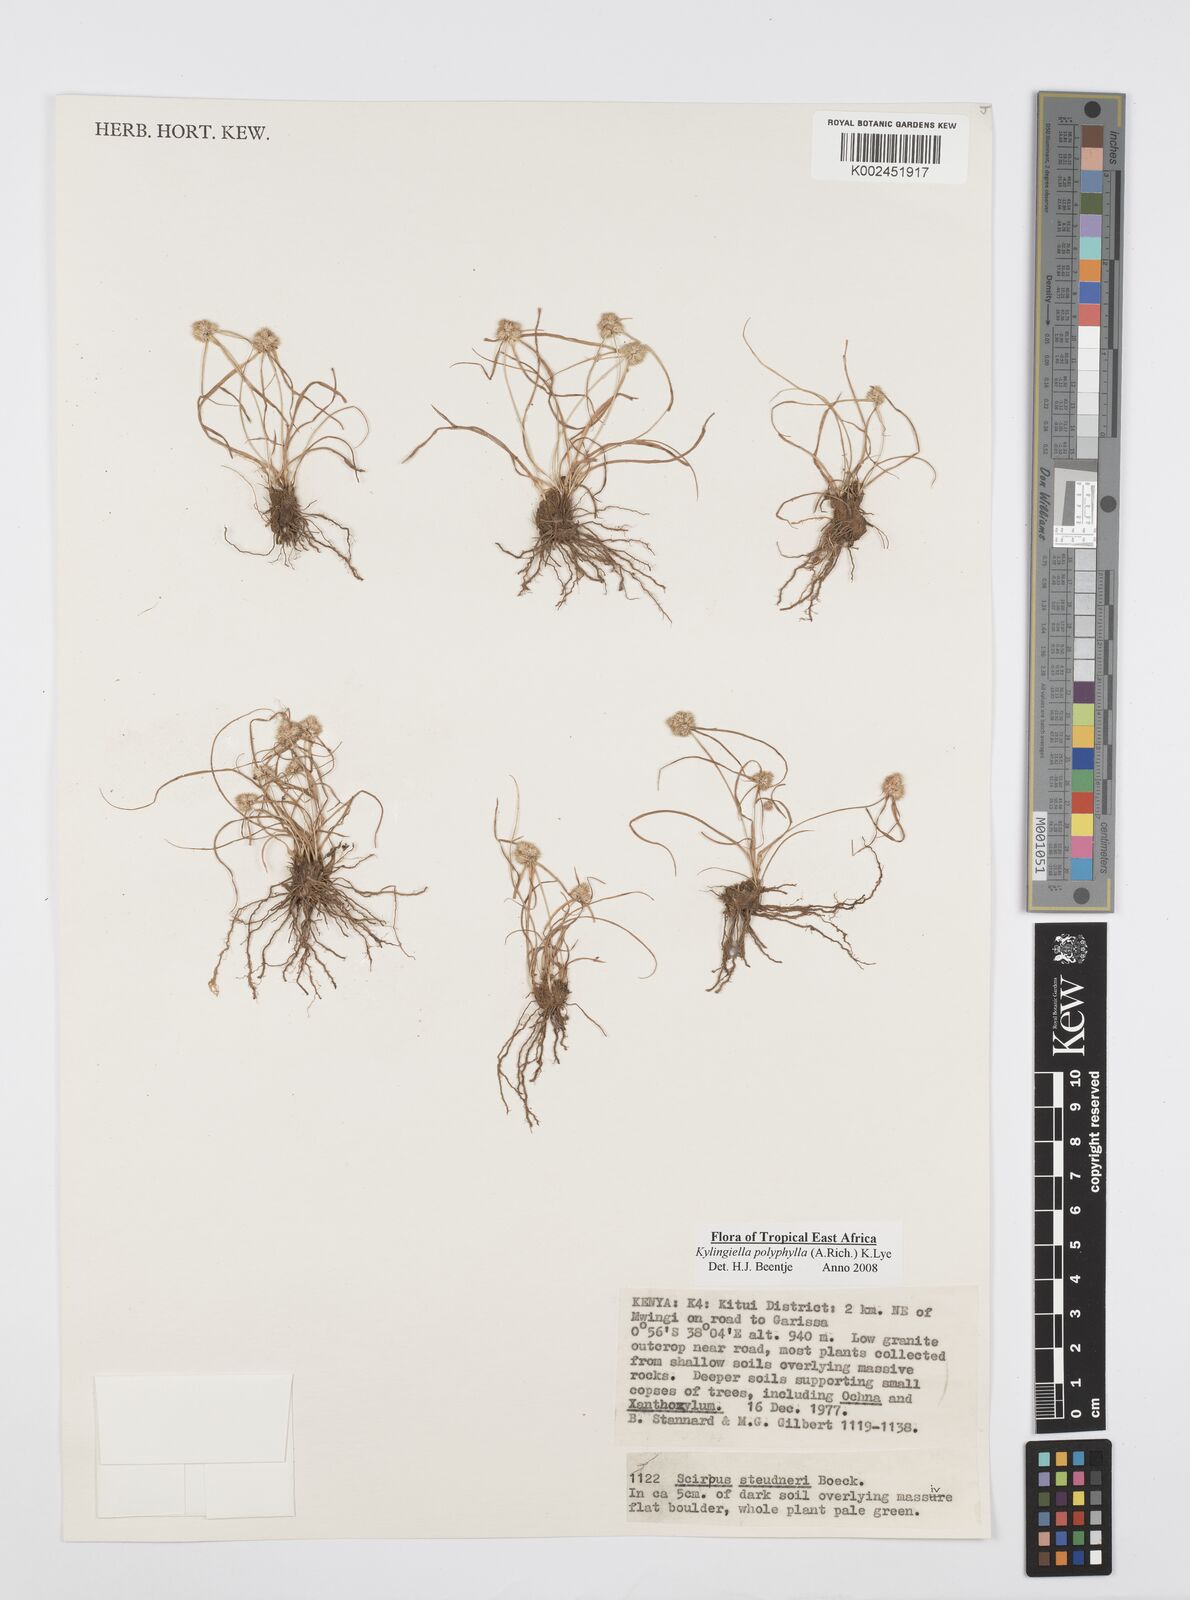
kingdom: Plantae
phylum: Tracheophyta
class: Liliopsida
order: Poales
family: Cyperaceae
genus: Cyperus
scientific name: Cyperus bulbosus
